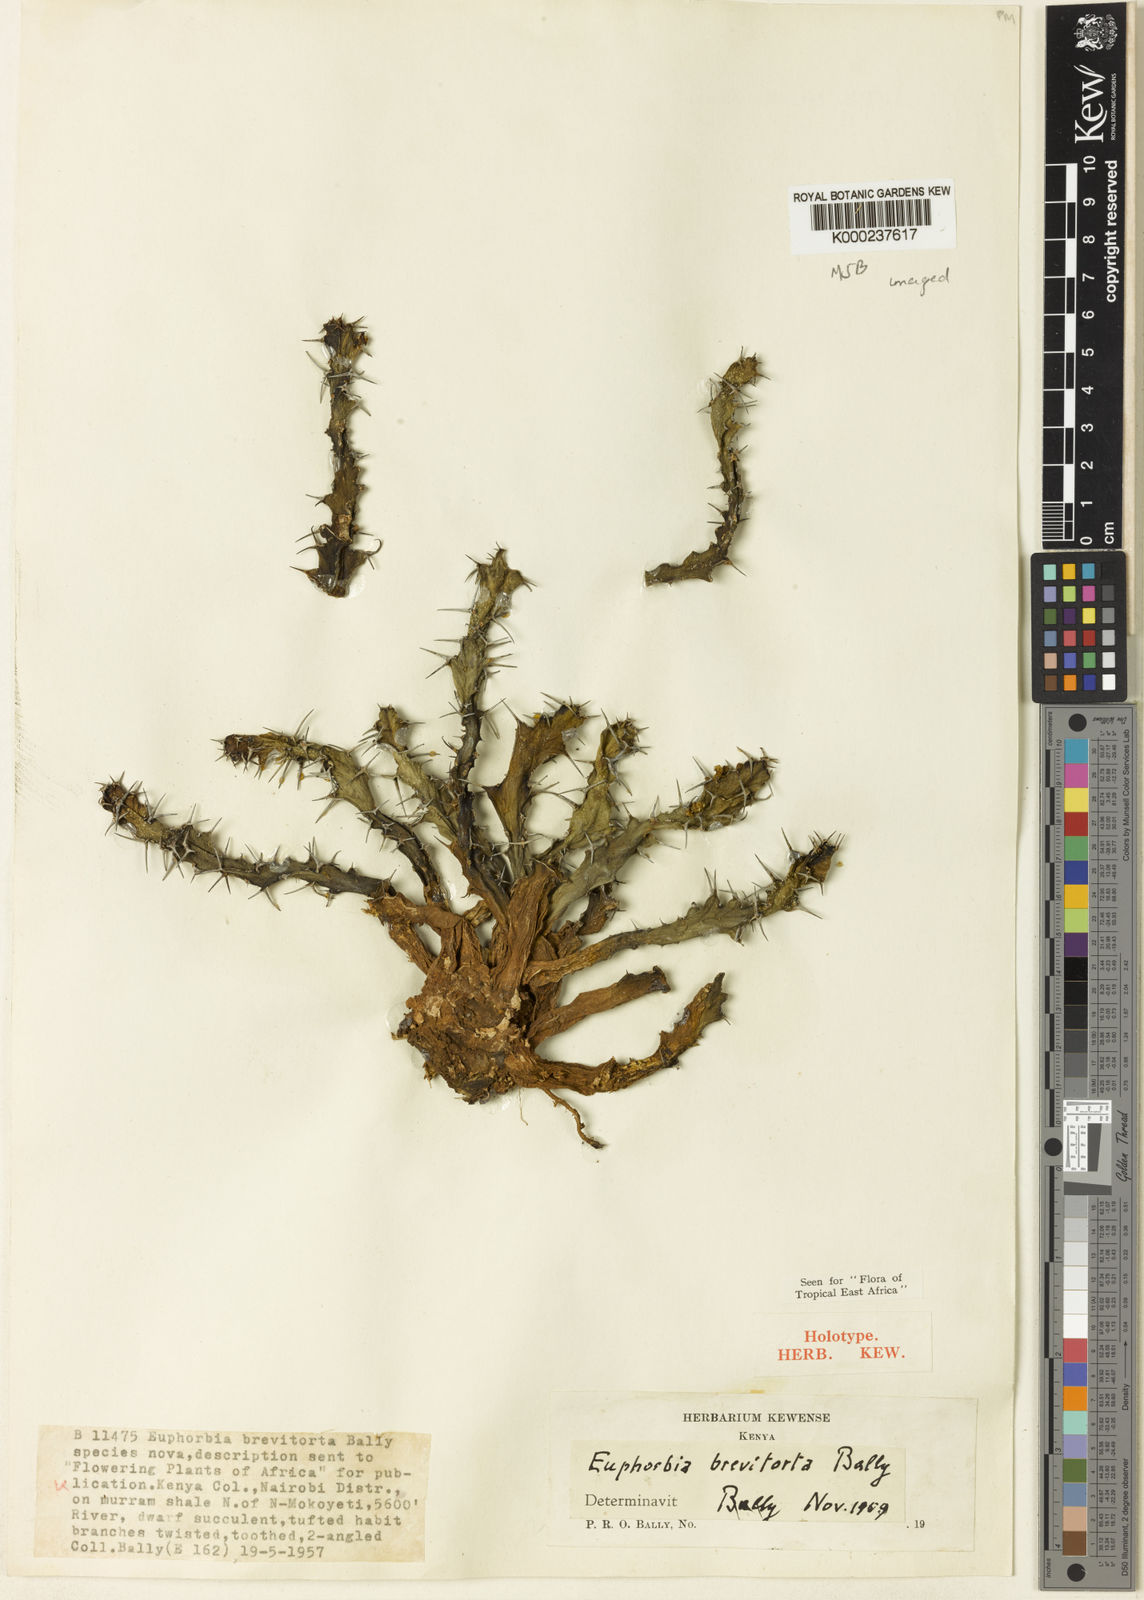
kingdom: Plantae
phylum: Tracheophyta
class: Magnoliopsida
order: Malpighiales
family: Euphorbiaceae
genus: Euphorbia
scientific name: Euphorbia brevitorta
